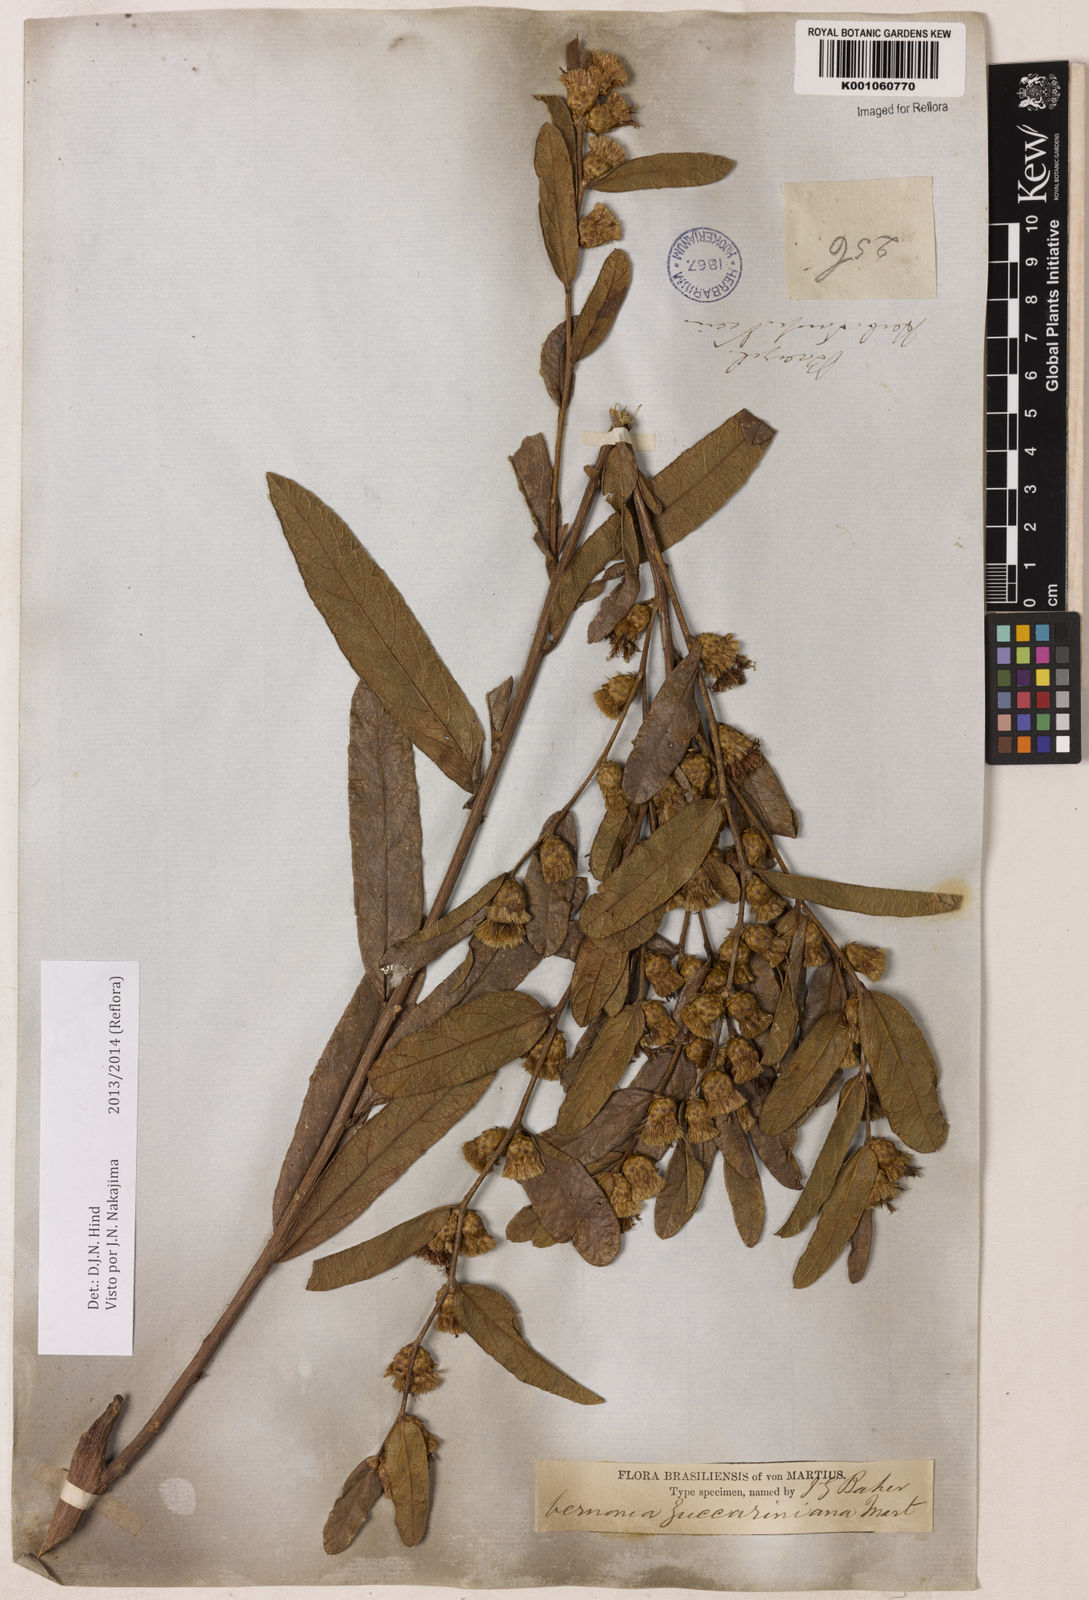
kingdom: Plantae
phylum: Tracheophyta
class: Magnoliopsida
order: Asterales
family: Asteraceae
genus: Lessingianthus
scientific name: Lessingianthus zuccarinianus
